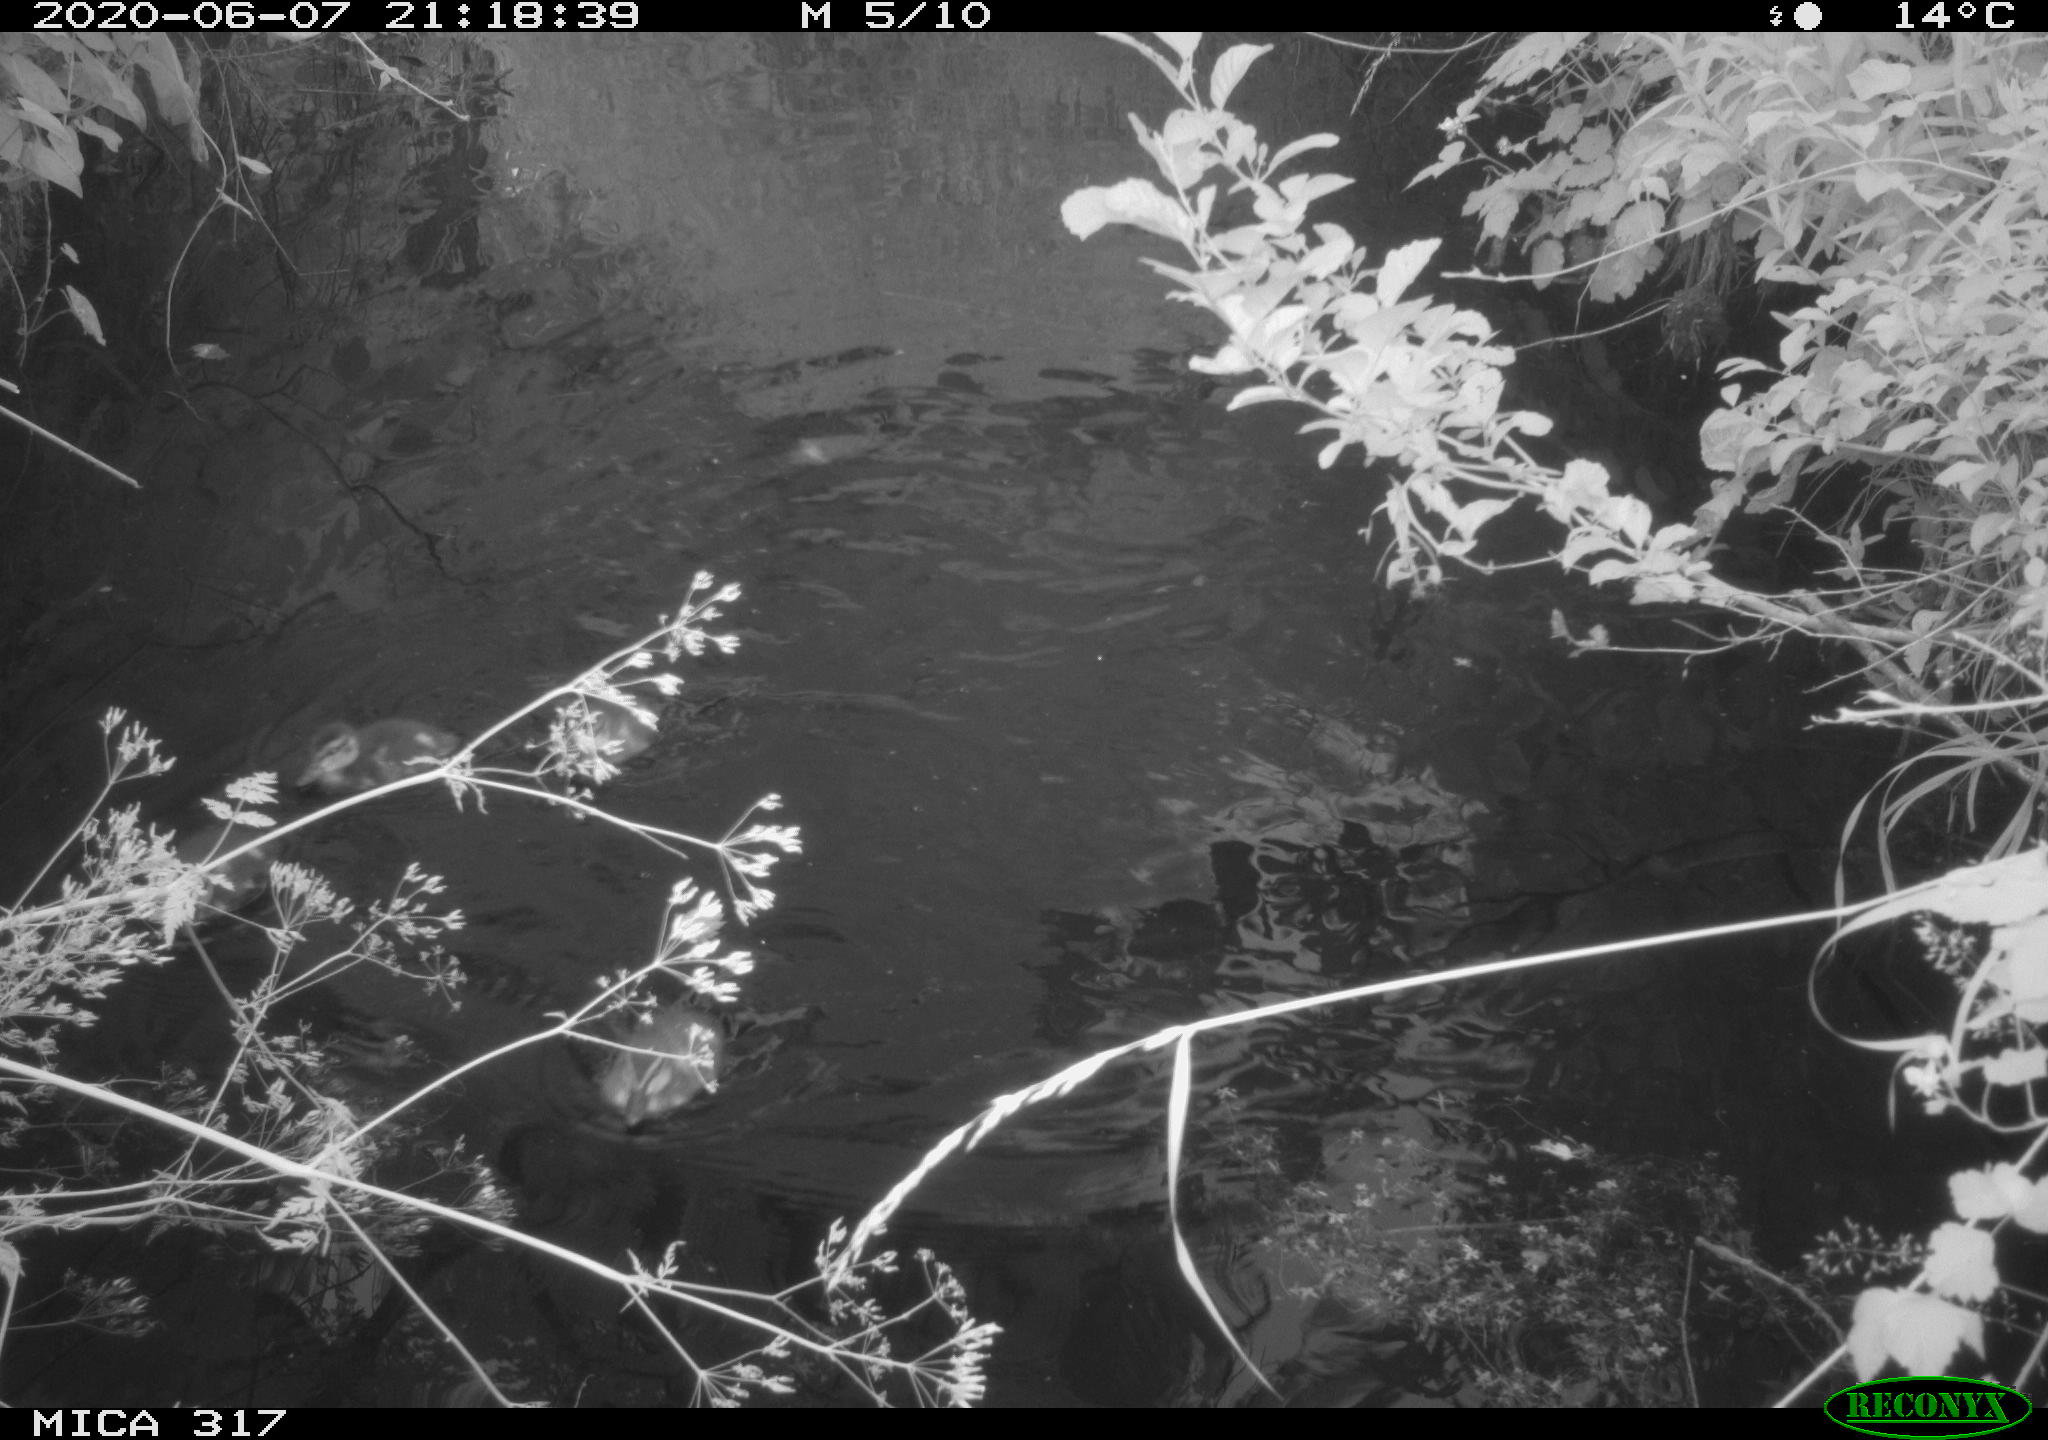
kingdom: Animalia
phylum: Chordata
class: Aves
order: Anseriformes
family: Anatidae
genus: Anas
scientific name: Anas platyrhynchos
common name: Mallard
